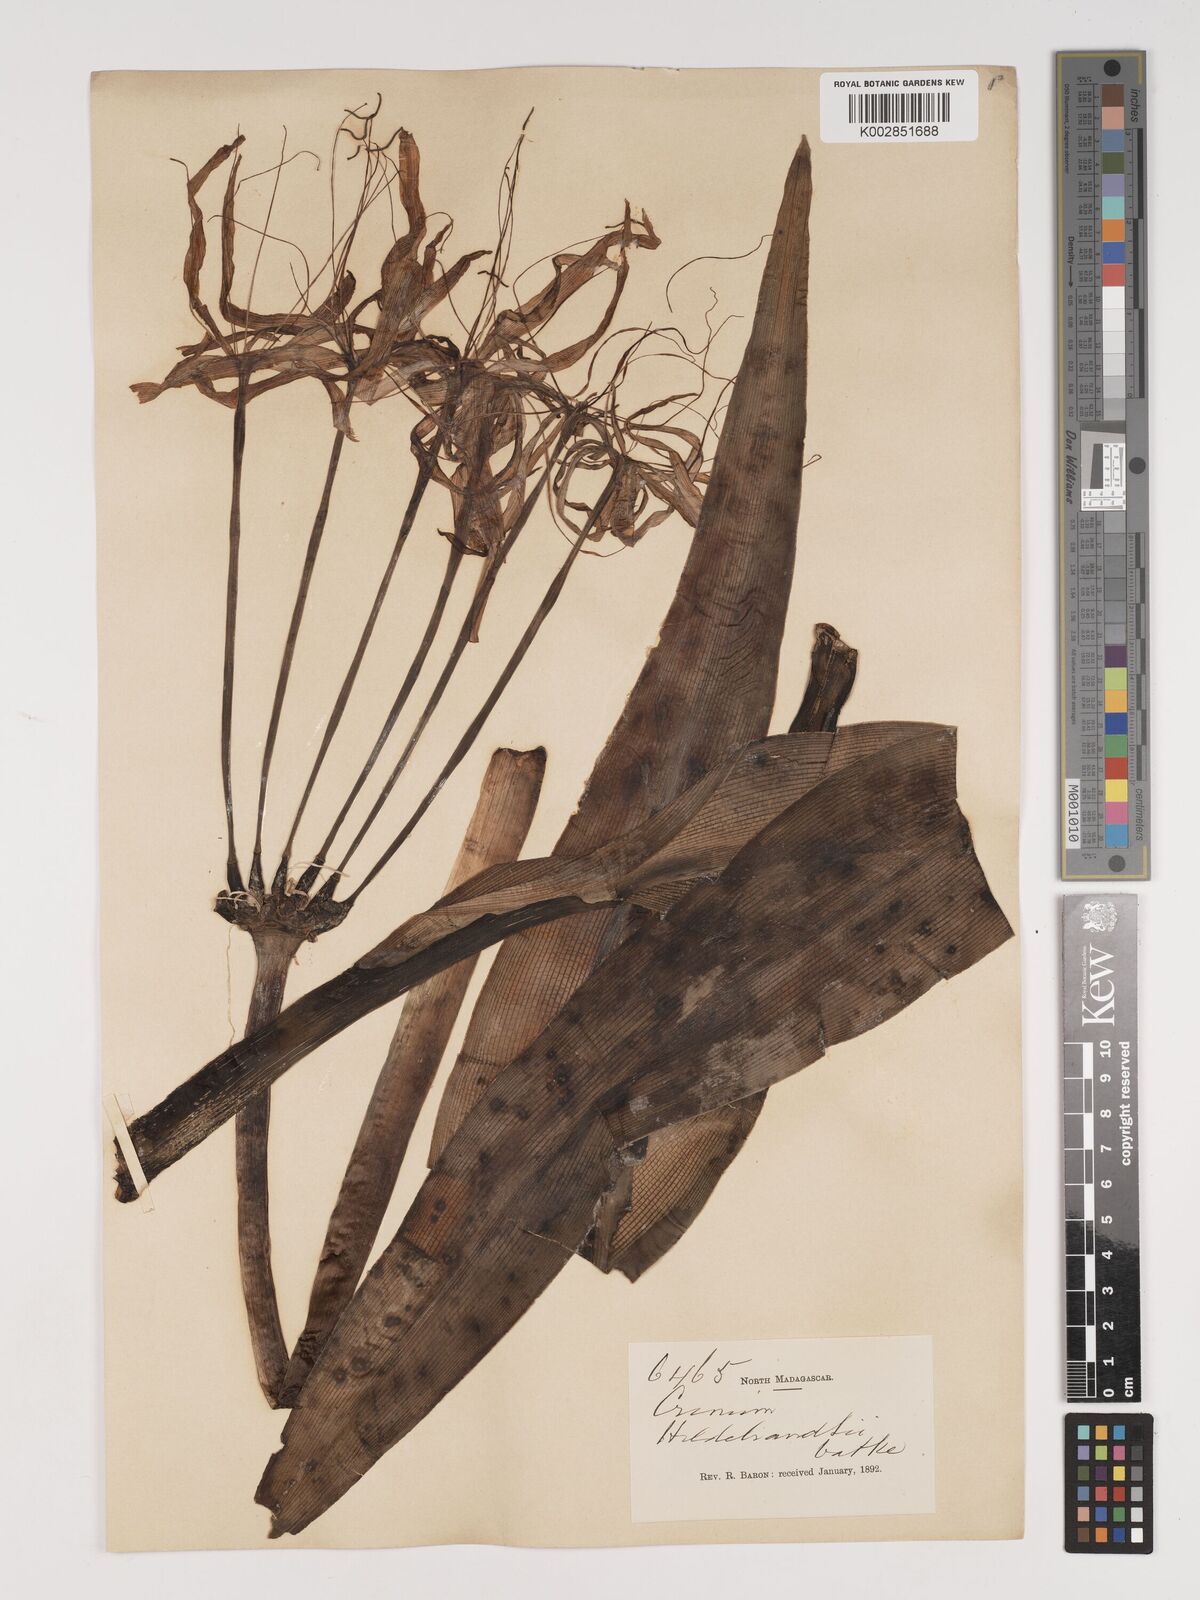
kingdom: Plantae
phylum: Tracheophyta
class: Liliopsida
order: Asparagales
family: Amaryllidaceae
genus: Crinum
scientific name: Crinum hildebrandtii
